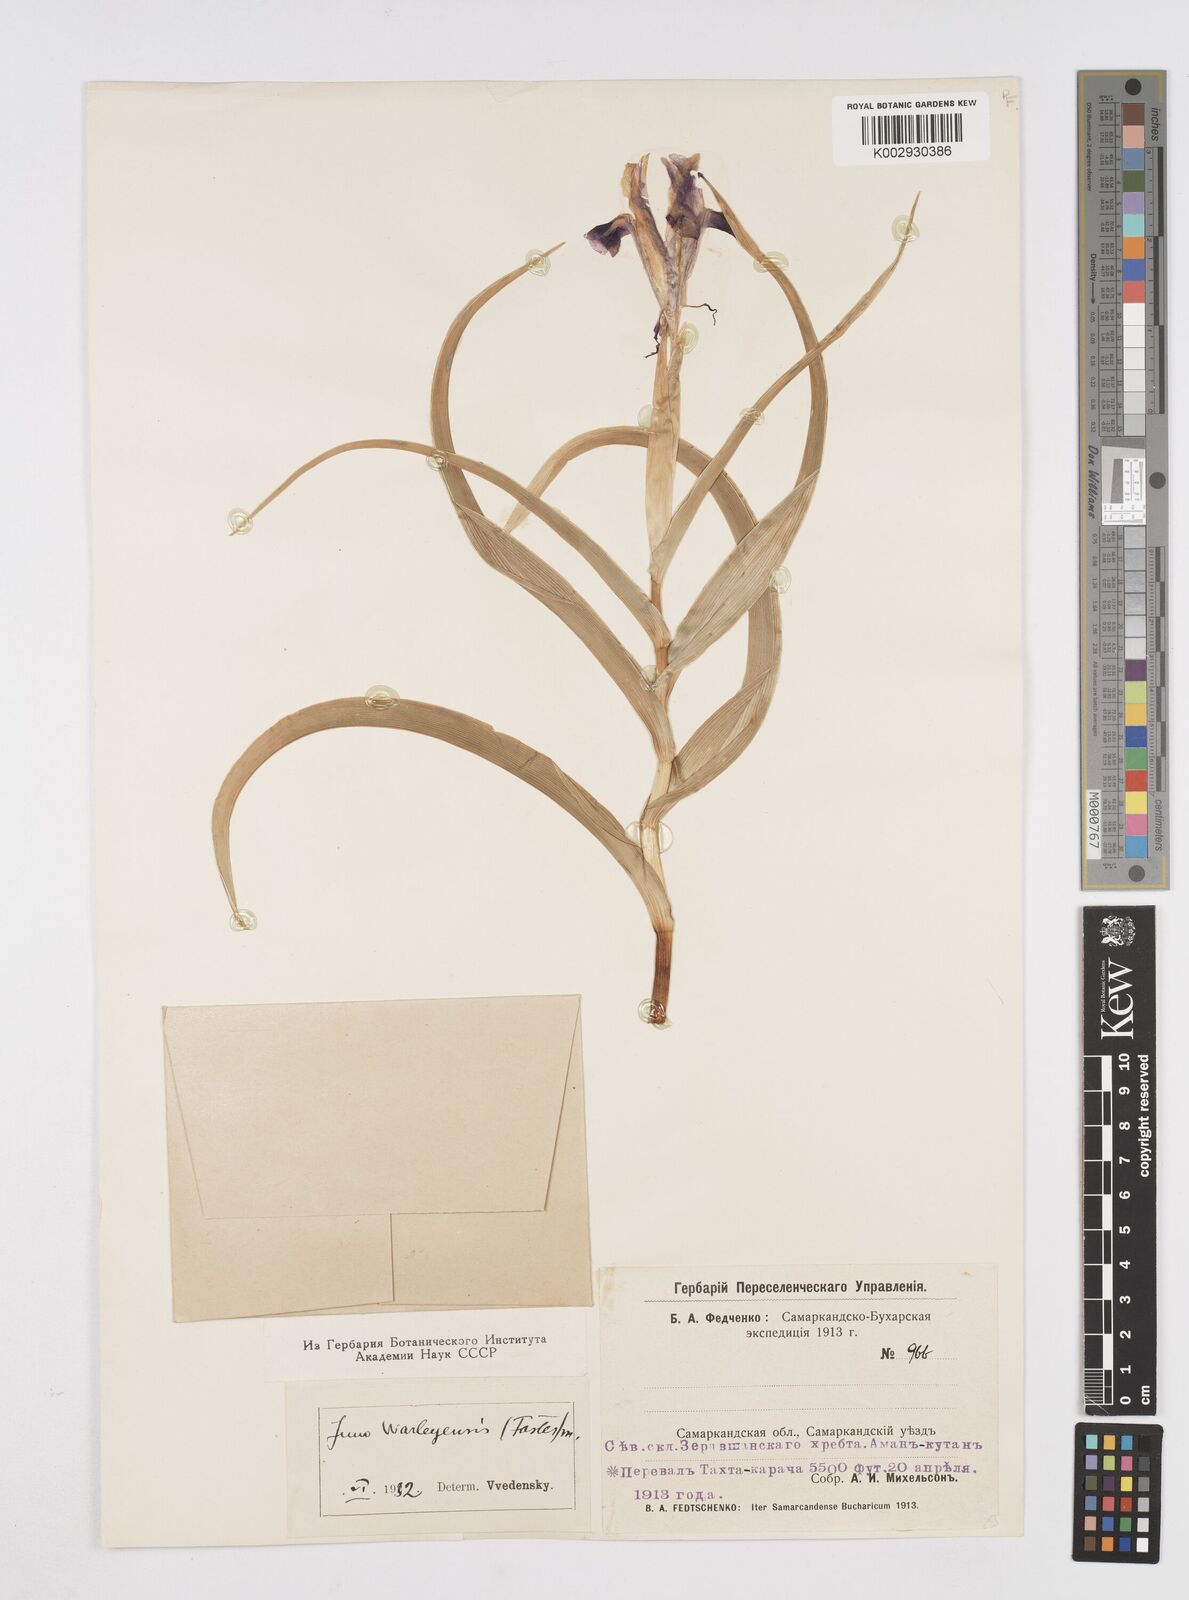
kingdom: Plantae
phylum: Tracheophyta
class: Liliopsida
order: Asparagales
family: Iridaceae
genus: Iris
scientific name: Iris warleyensis
